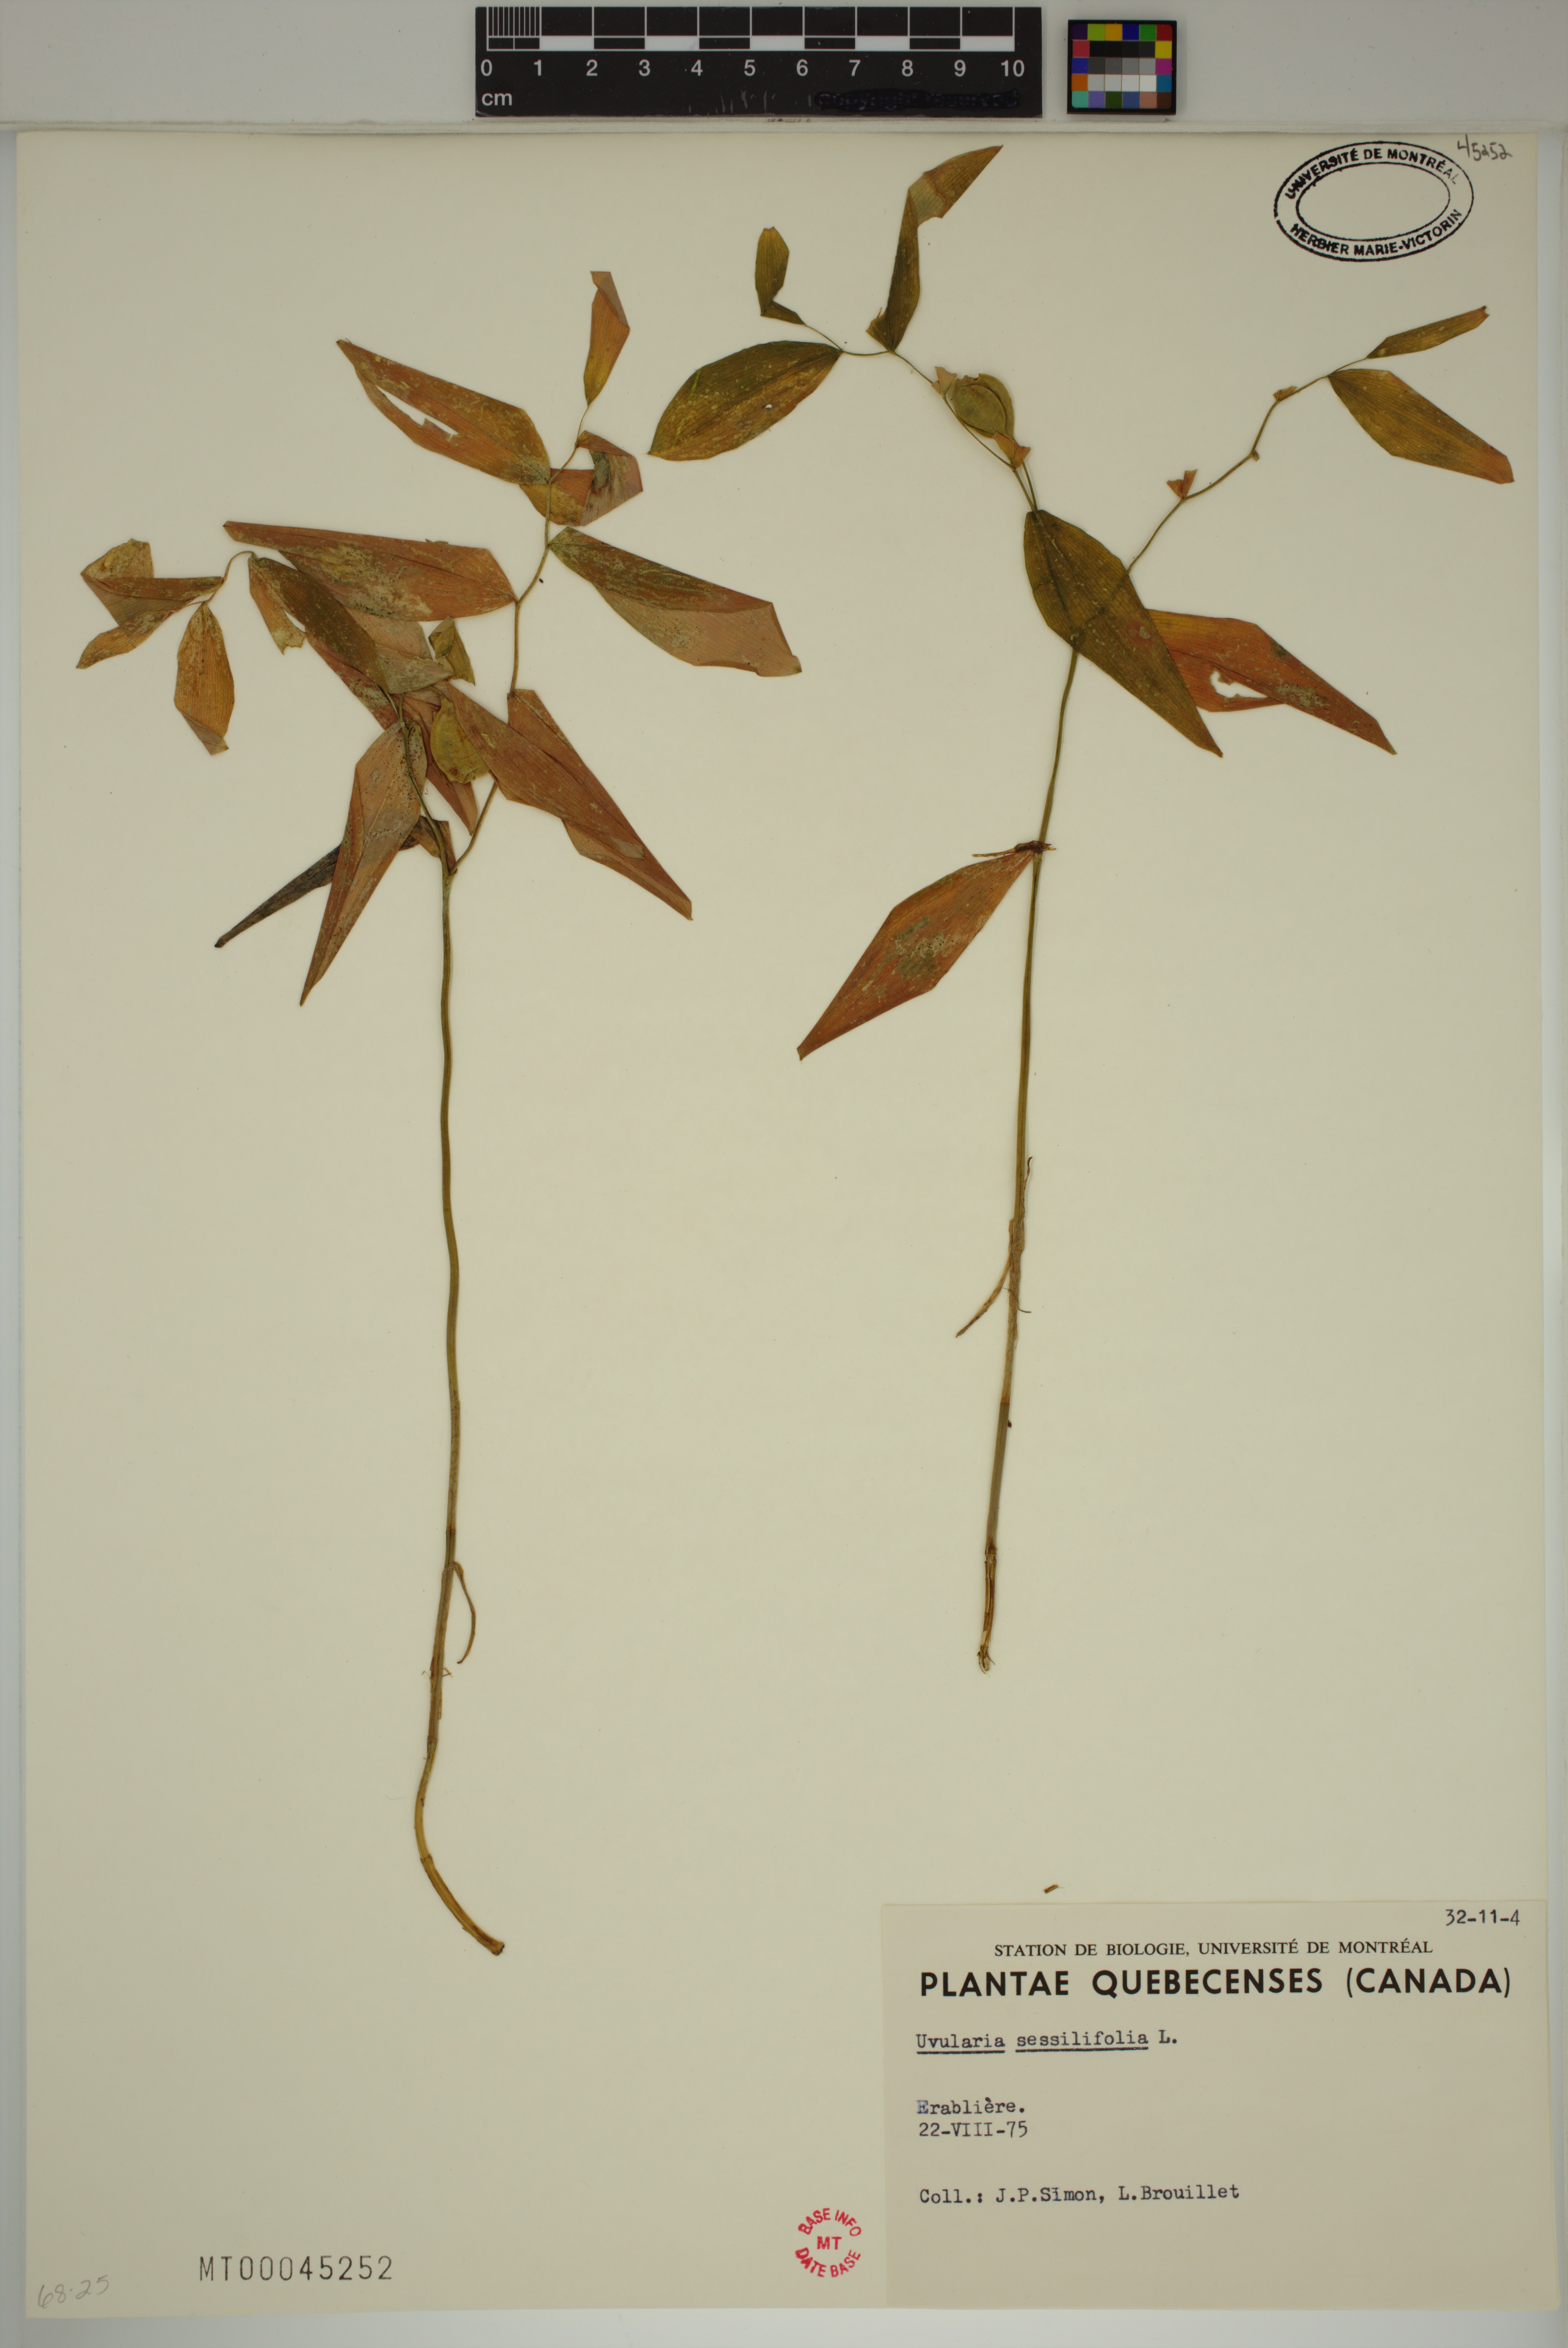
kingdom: Plantae
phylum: Tracheophyta
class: Liliopsida
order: Liliales
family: Colchicaceae
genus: Uvularia
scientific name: Uvularia sessilifolia
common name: Straw-lily
